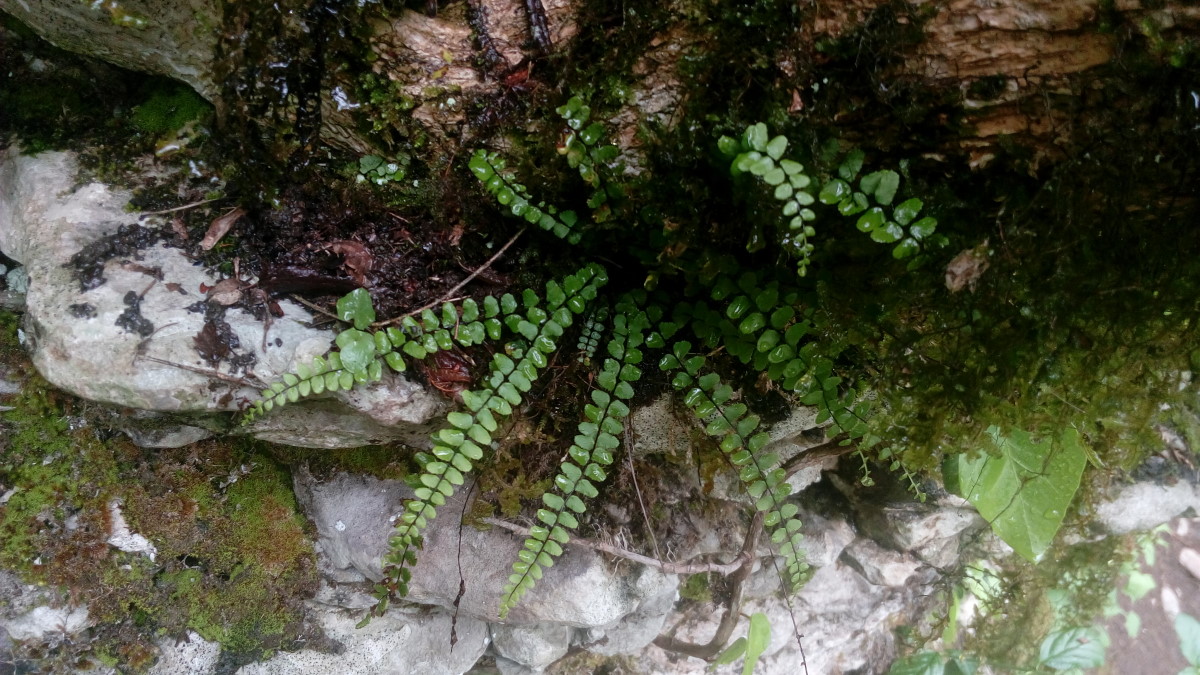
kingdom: Plantae
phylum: Tracheophyta
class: Polypodiopsida
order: Polypodiales
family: Aspleniaceae
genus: Asplenium
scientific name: Asplenium trichomanes
